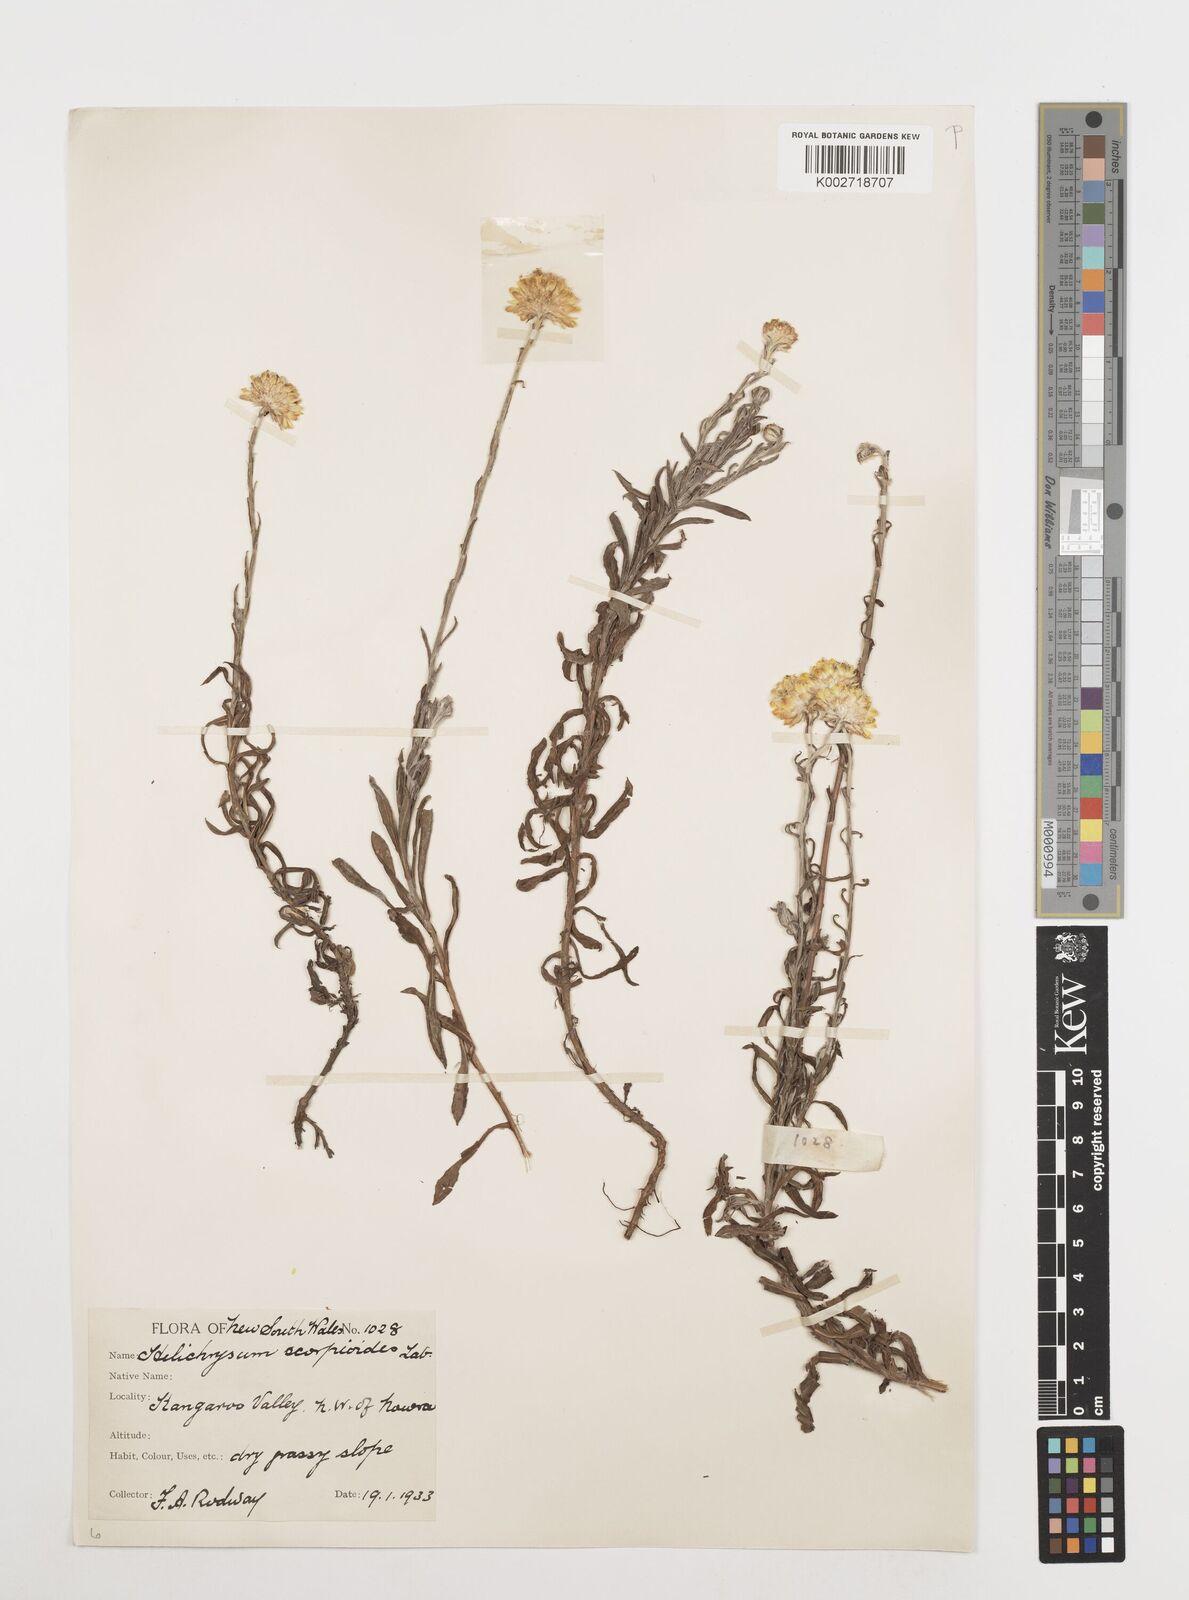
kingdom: Plantae
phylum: Tracheophyta
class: Magnoliopsida
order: Asterales
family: Asteraceae
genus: Coronidium
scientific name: Coronidium scorpioides
